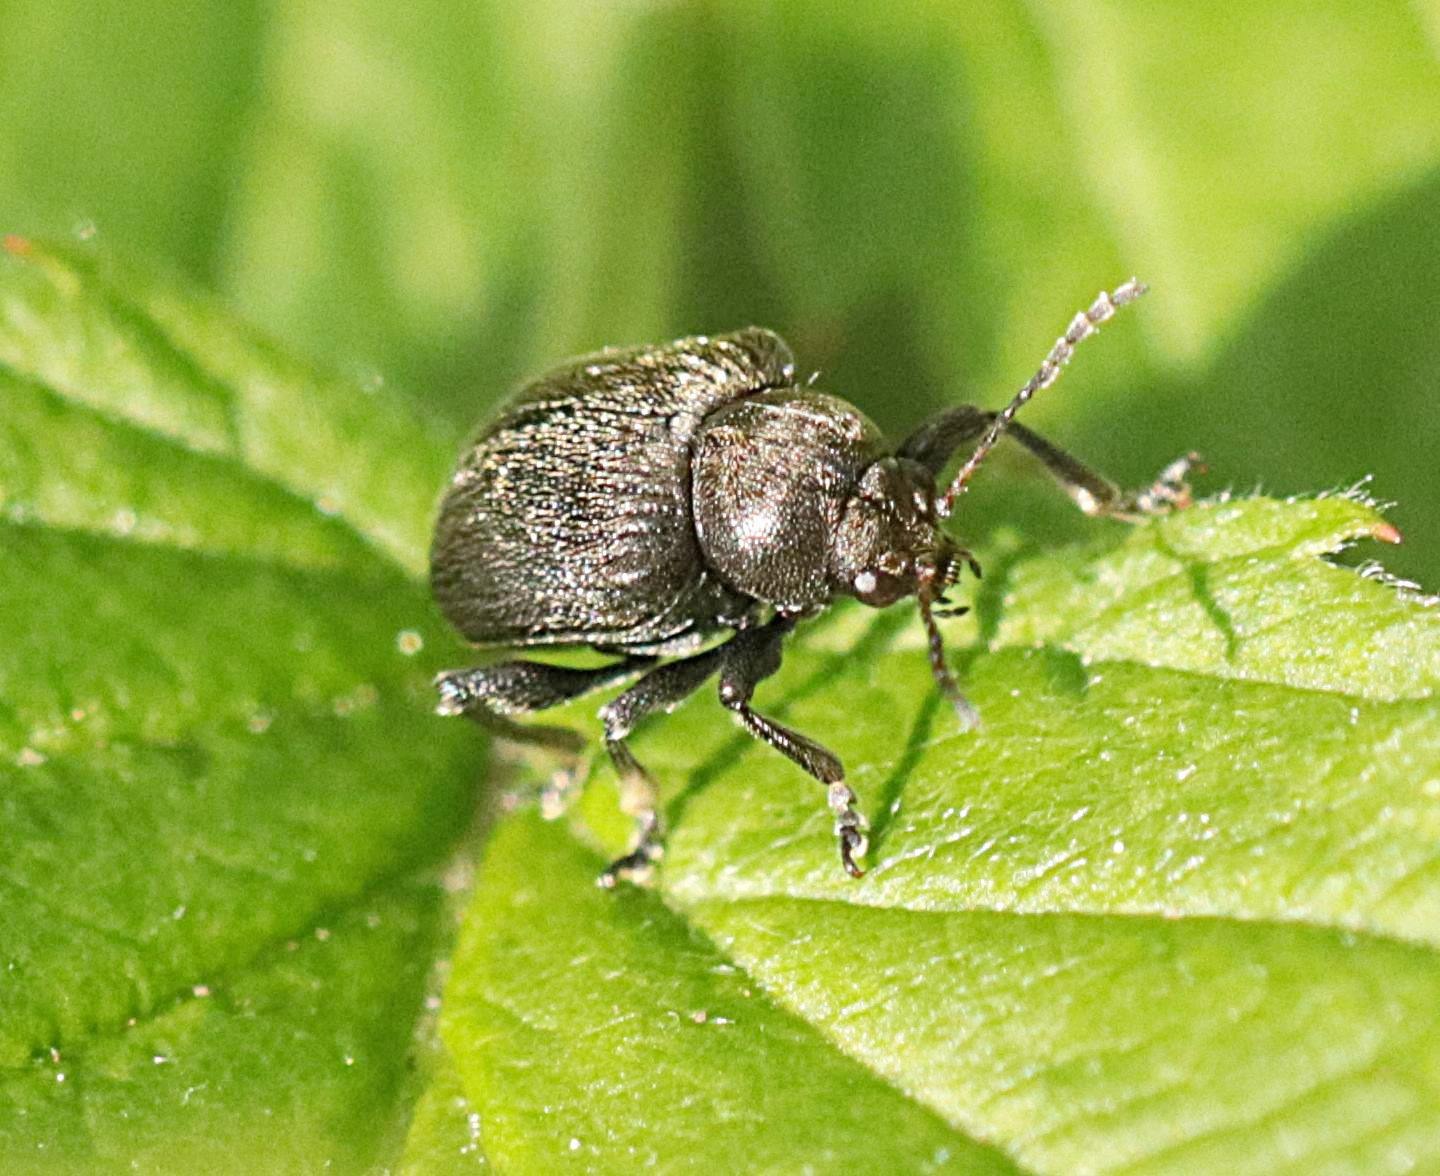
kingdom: Animalia
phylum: Arthropoda
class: Insecta
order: Coleoptera
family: Chrysomelidae
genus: Bromius
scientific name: Bromius obscurus
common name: Gederamsbille
